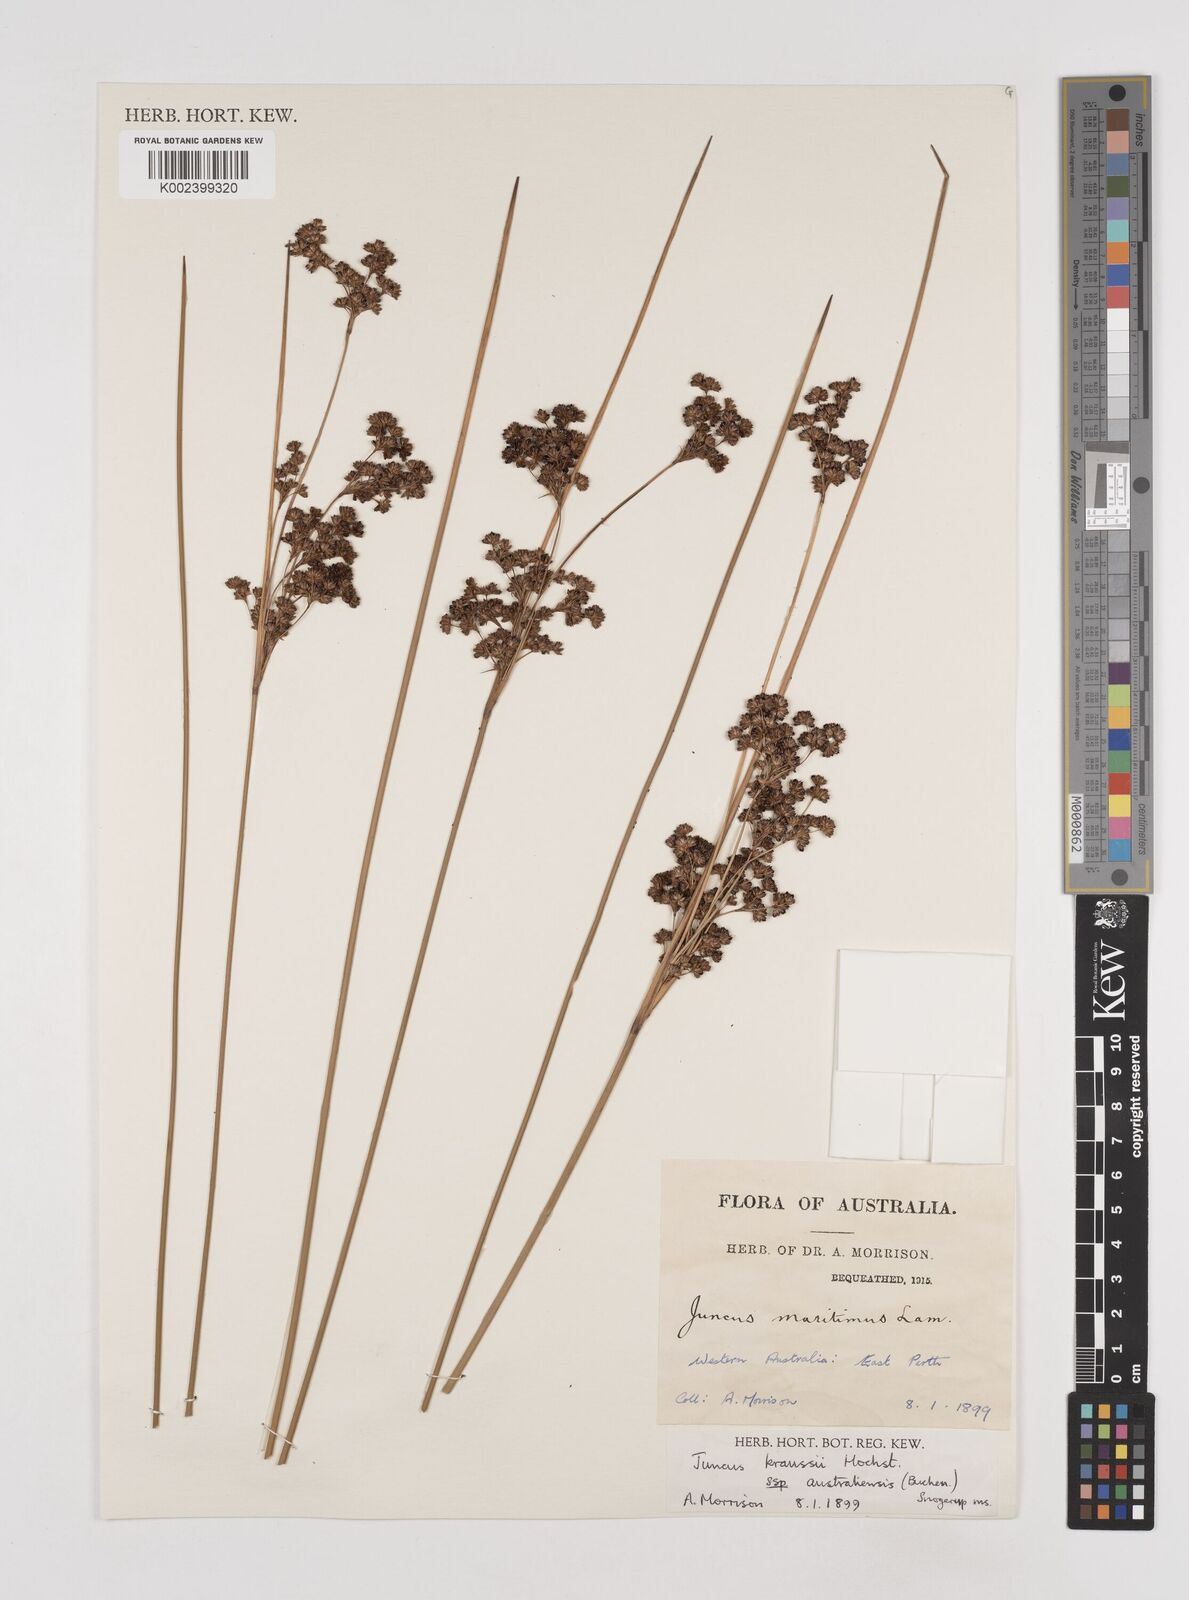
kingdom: Plantae
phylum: Tracheophyta
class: Liliopsida
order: Poales
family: Juncaceae
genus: Juncus
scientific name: Juncus kraussii
